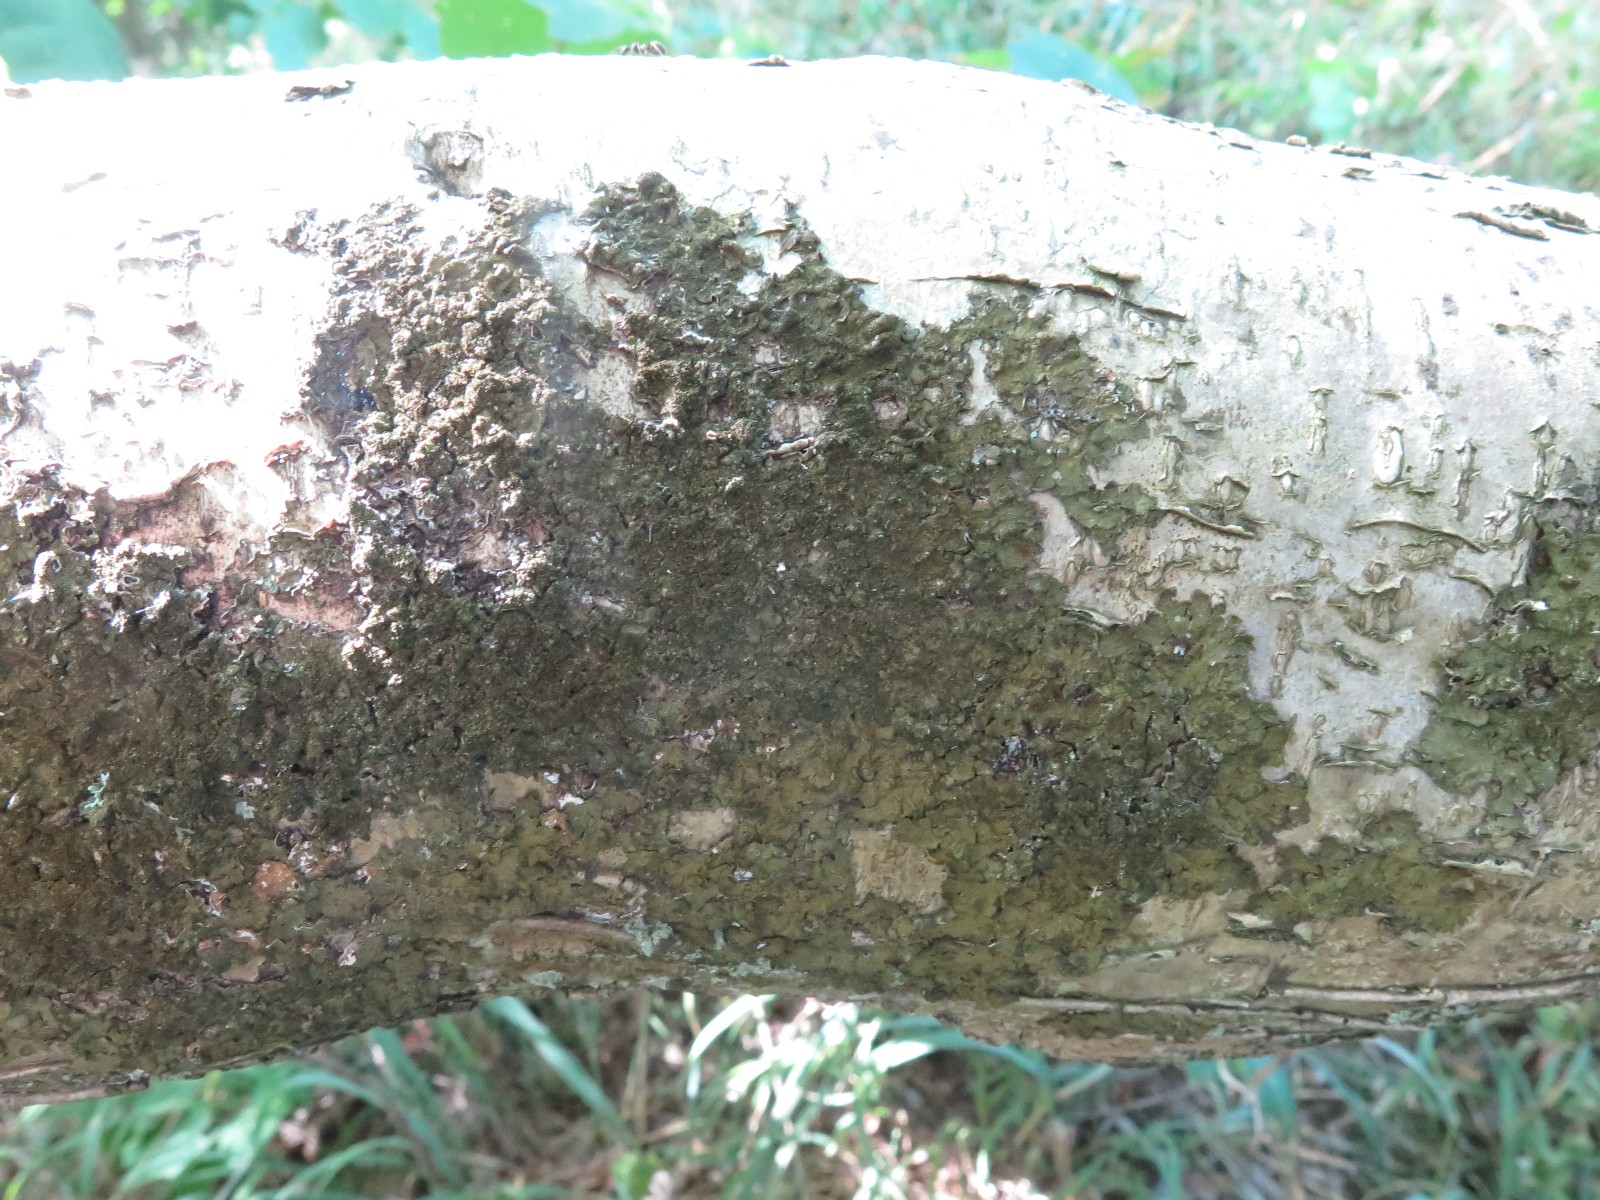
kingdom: Fungi
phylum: Ascomycota
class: Lecanoromycetes
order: Lecanorales
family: Parmeliaceae
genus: Melanelixia
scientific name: Melanelixia glabratula
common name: glinsende skållav
